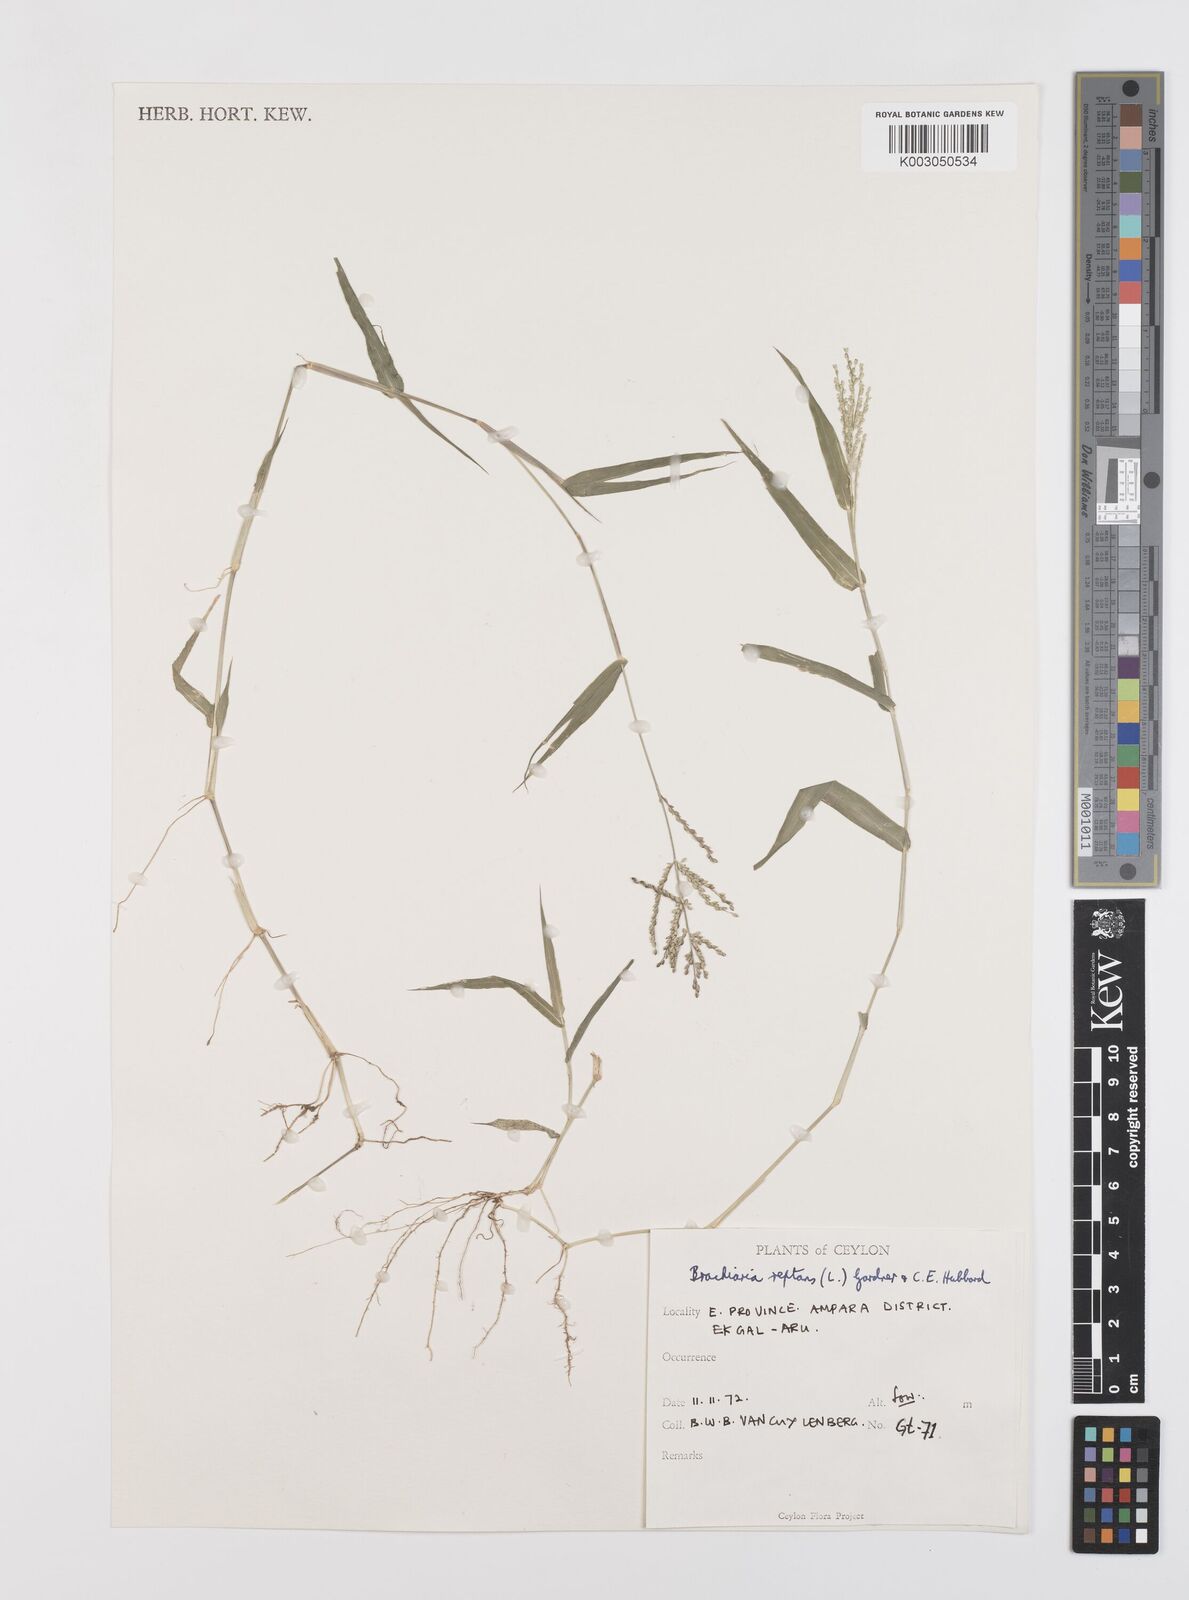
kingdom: Plantae
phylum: Tracheophyta
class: Liliopsida
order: Poales
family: Poaceae
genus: Urochloa
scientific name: Urochloa reptans
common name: Sprawling signalgrass
